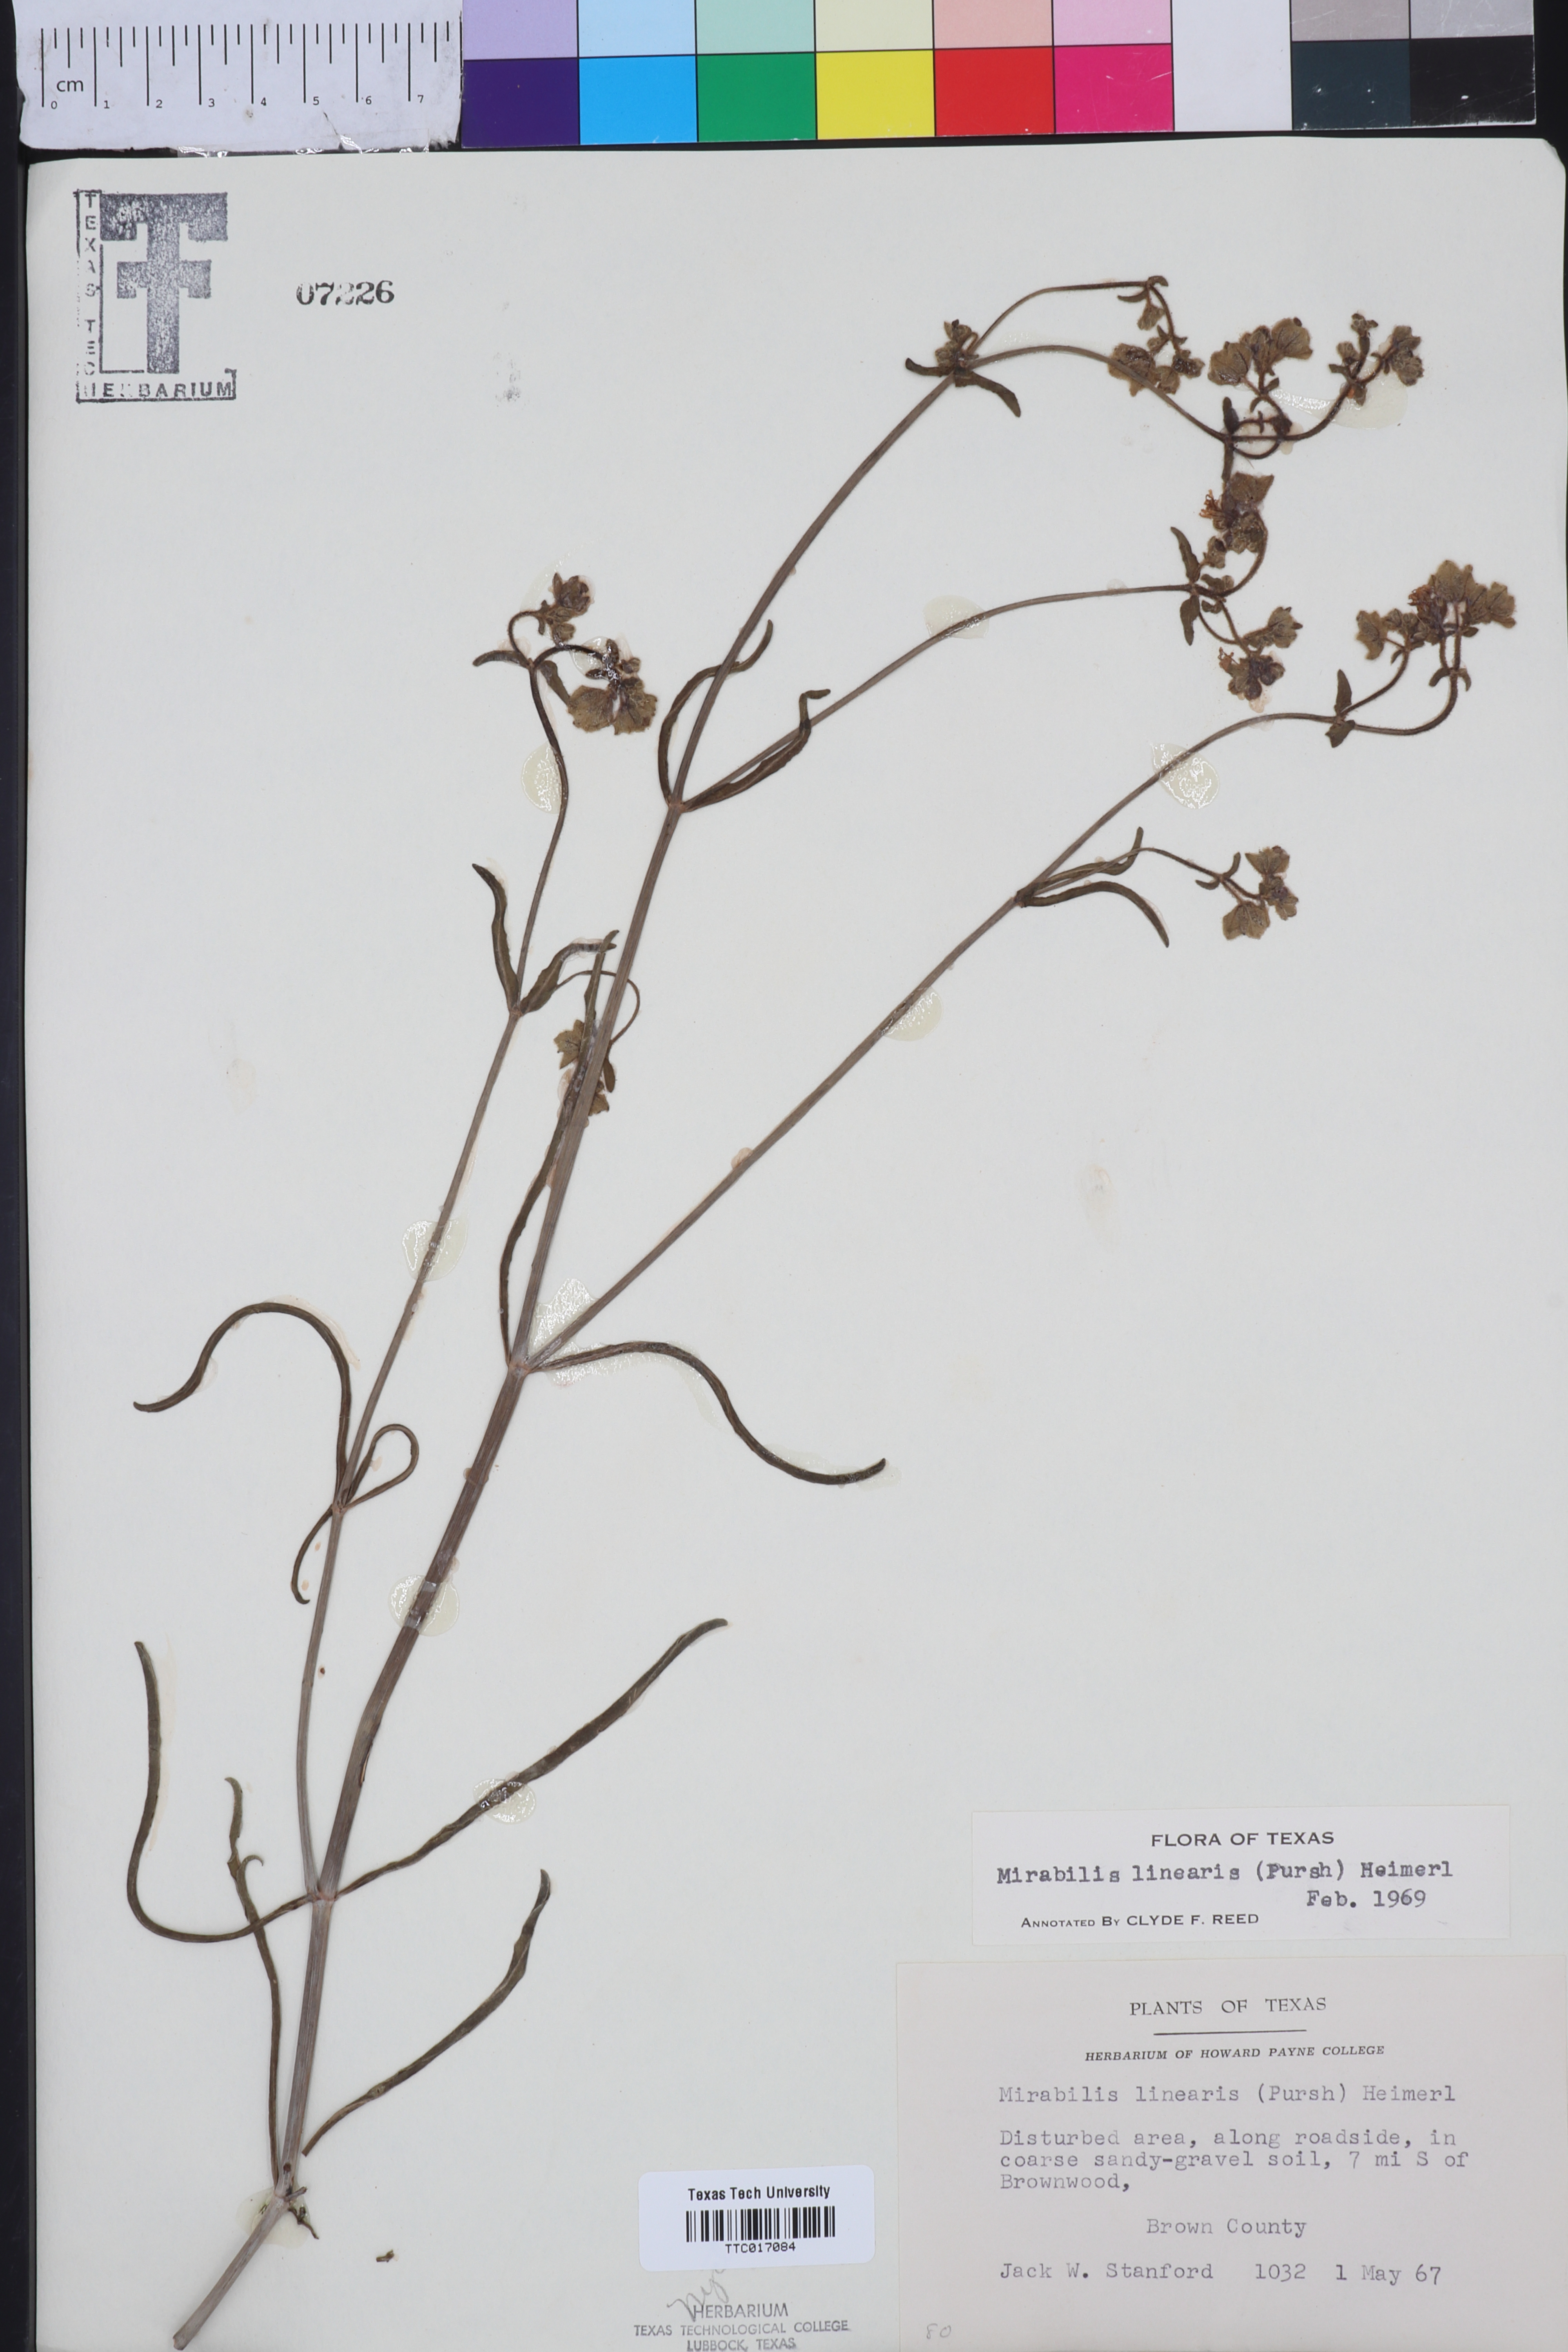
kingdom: Plantae
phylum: Tracheophyta
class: Magnoliopsida
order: Caryophyllales
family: Nyctaginaceae
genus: Mirabilis
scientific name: Mirabilis linearis
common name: Linear-leaved four-o'clock
